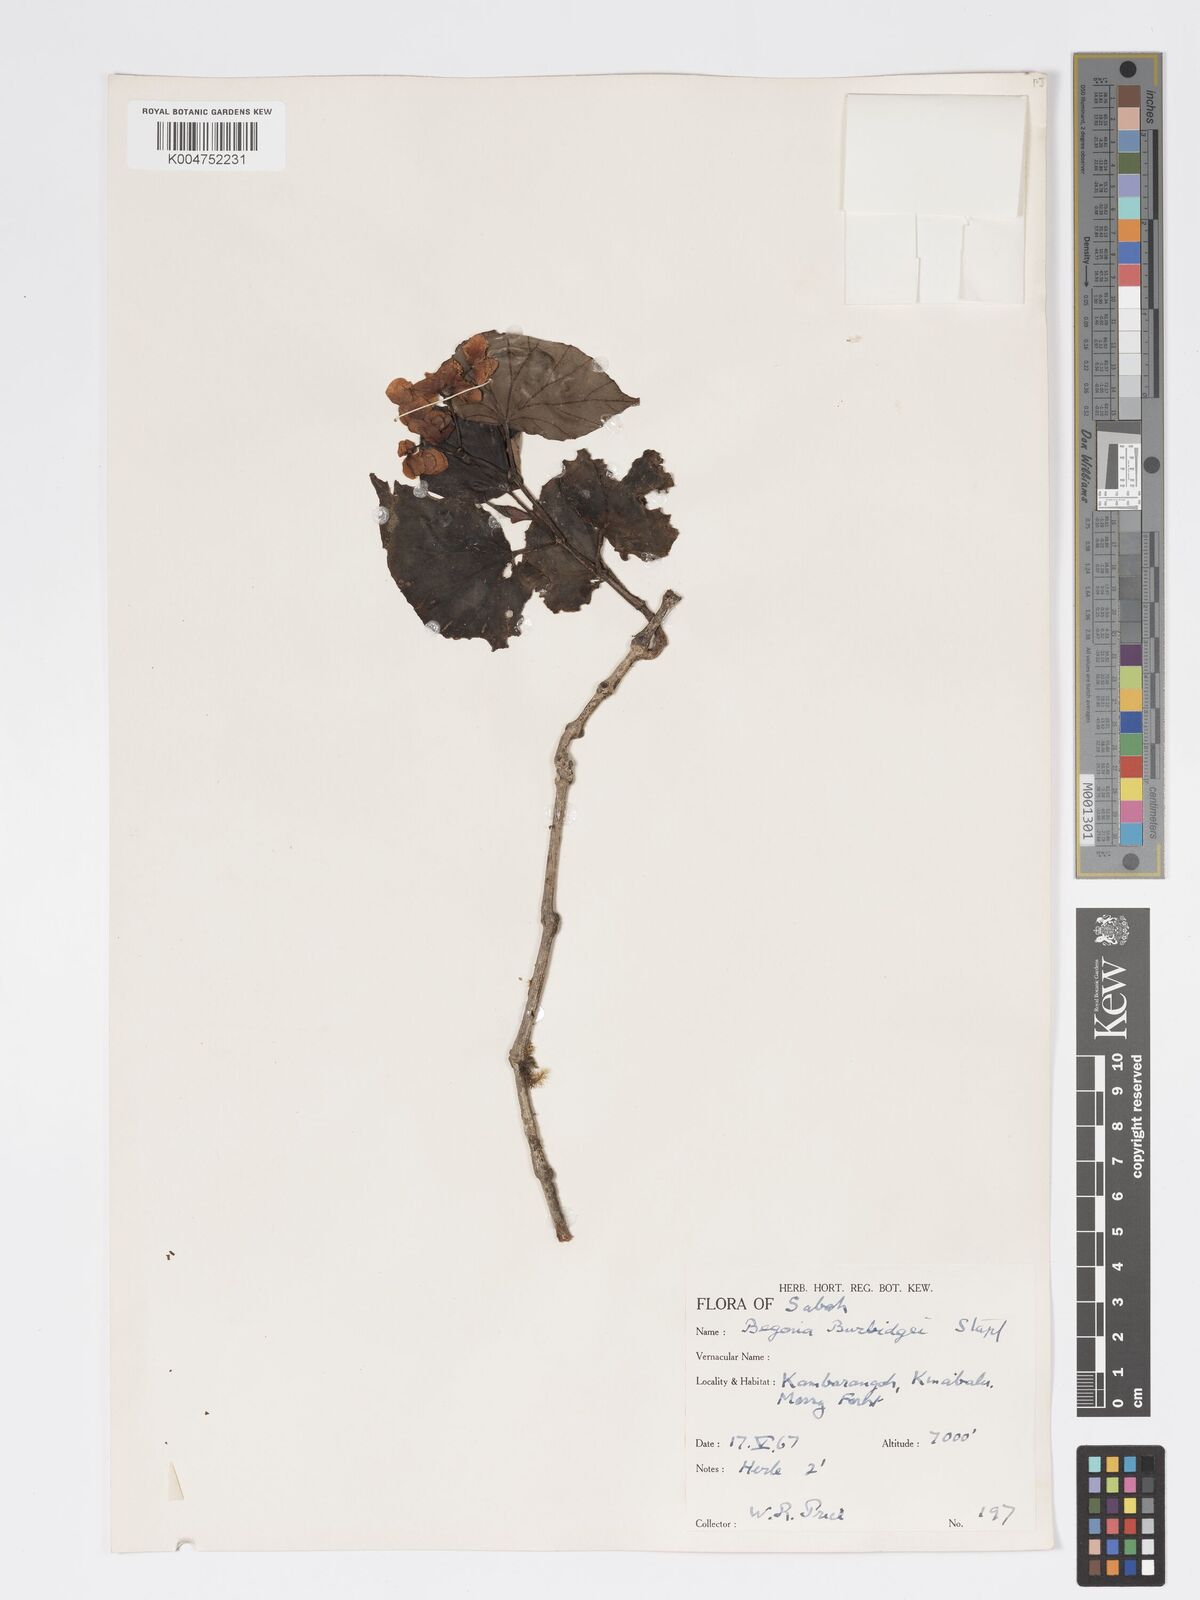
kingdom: Plantae
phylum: Tracheophyta
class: Magnoliopsida
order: Cucurbitales
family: Begoniaceae
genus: Begonia
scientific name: Begonia burbidgei
